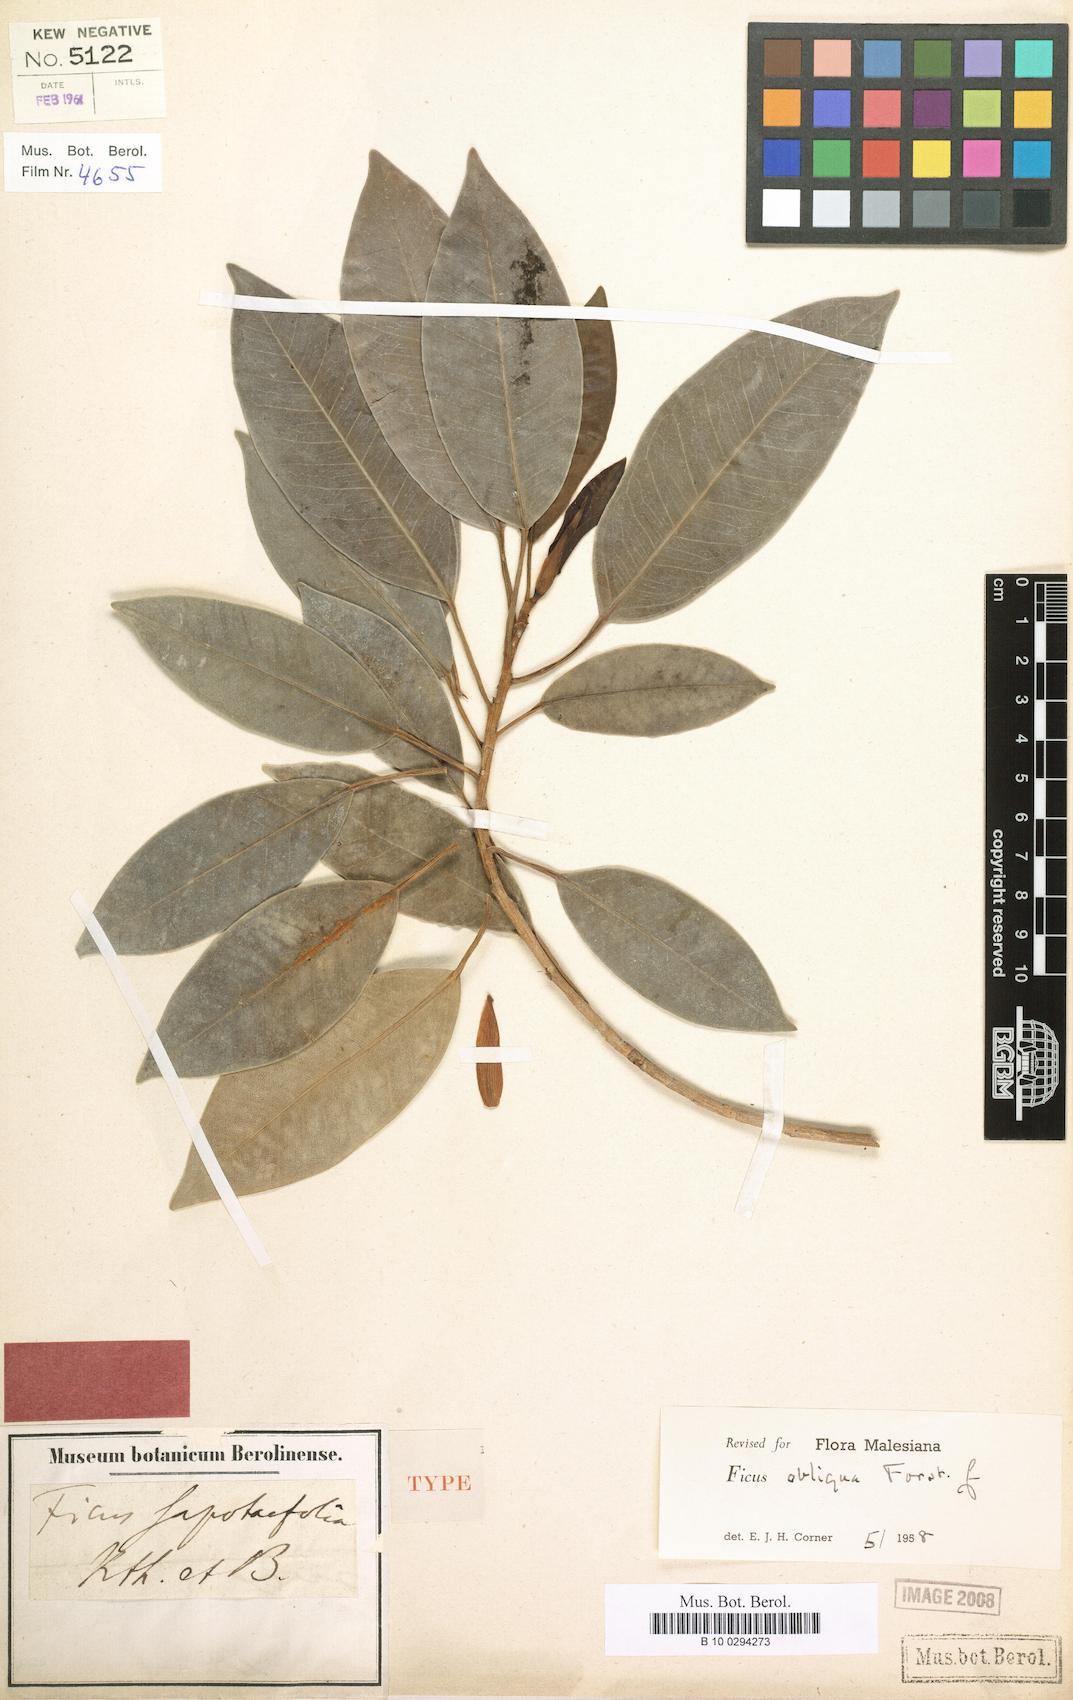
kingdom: Plantae
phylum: Tracheophyta
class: Magnoliopsida
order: Rosales
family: Moraceae
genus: Ficus
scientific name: Ficus obliqua
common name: Small-leaf fig
